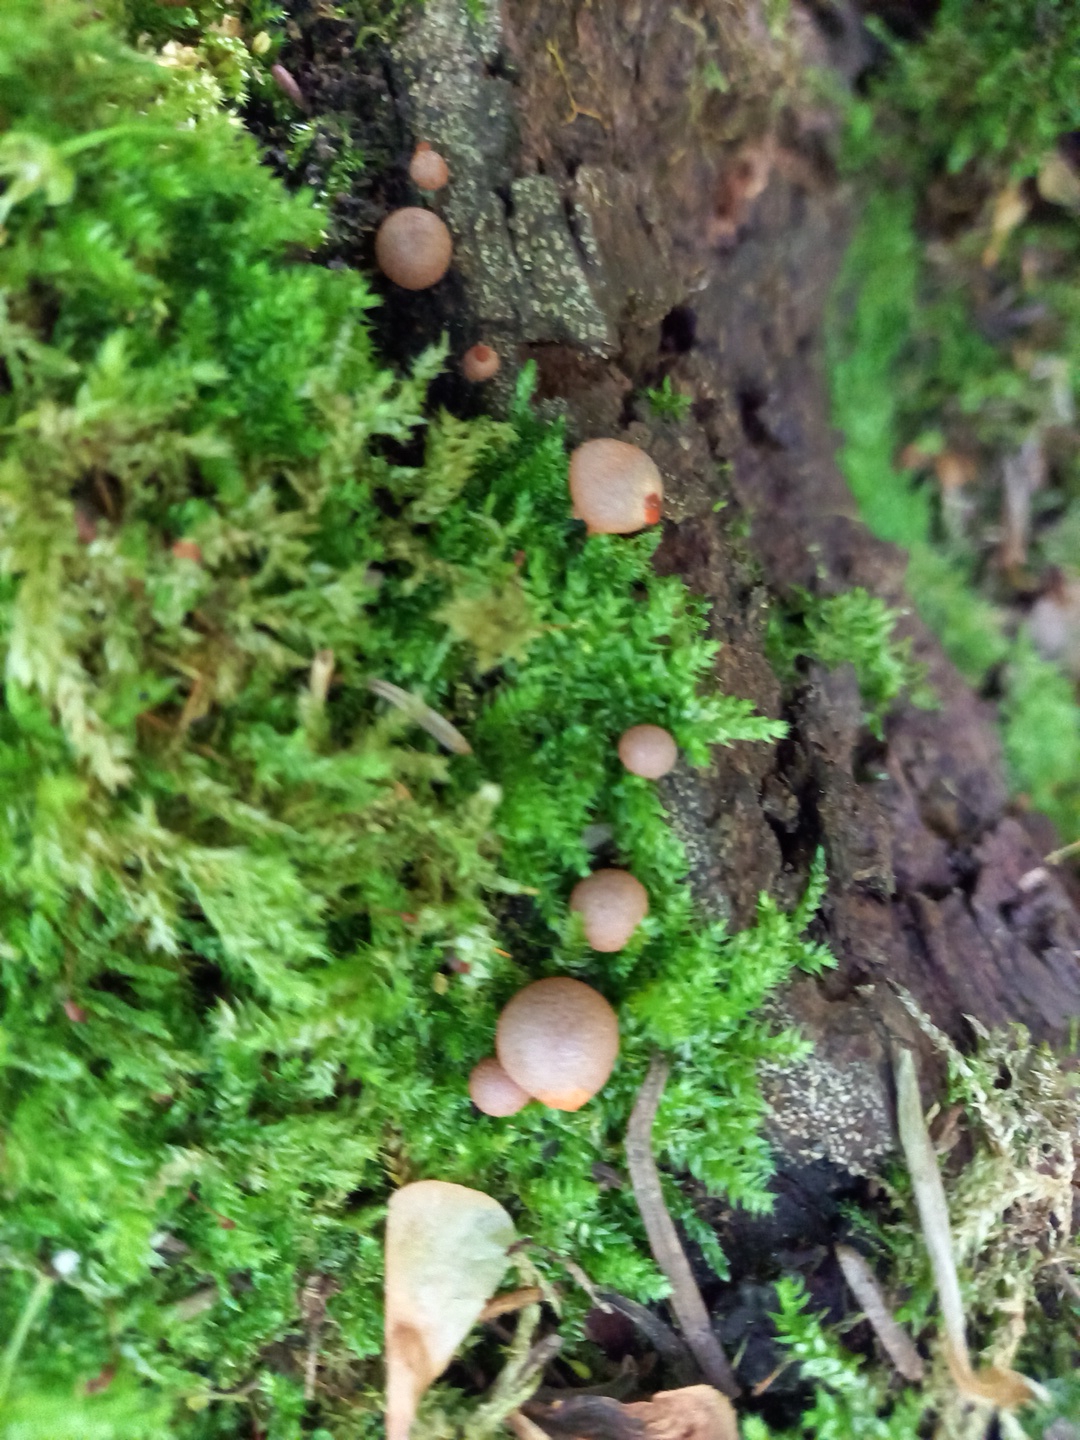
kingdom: Protozoa
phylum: Mycetozoa
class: Myxomycetes
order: Cribrariales
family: Tubiferaceae
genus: Lycogala
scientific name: Lycogala epidendrum
